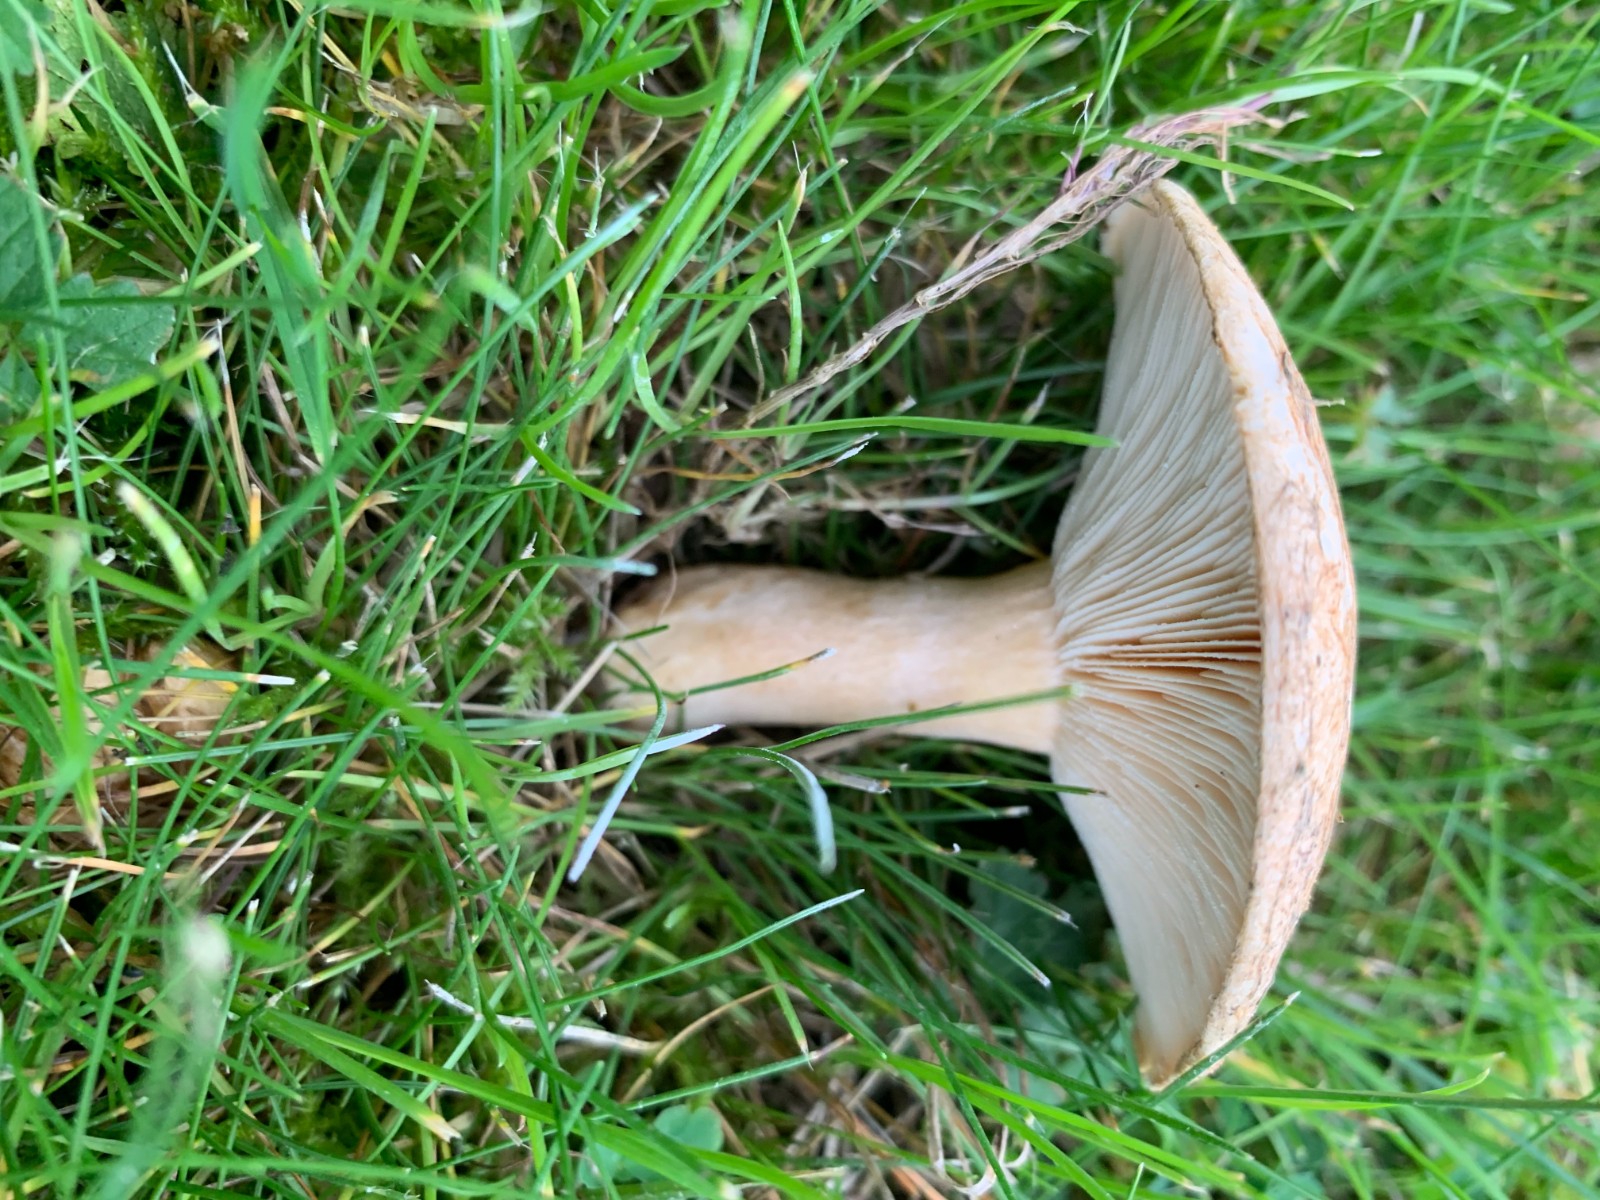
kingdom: Fungi
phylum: Basidiomycota
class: Agaricomycetes
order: Russulales
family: Russulaceae
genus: Lactarius
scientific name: Lactarius pubescens
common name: dunet mælkehat
